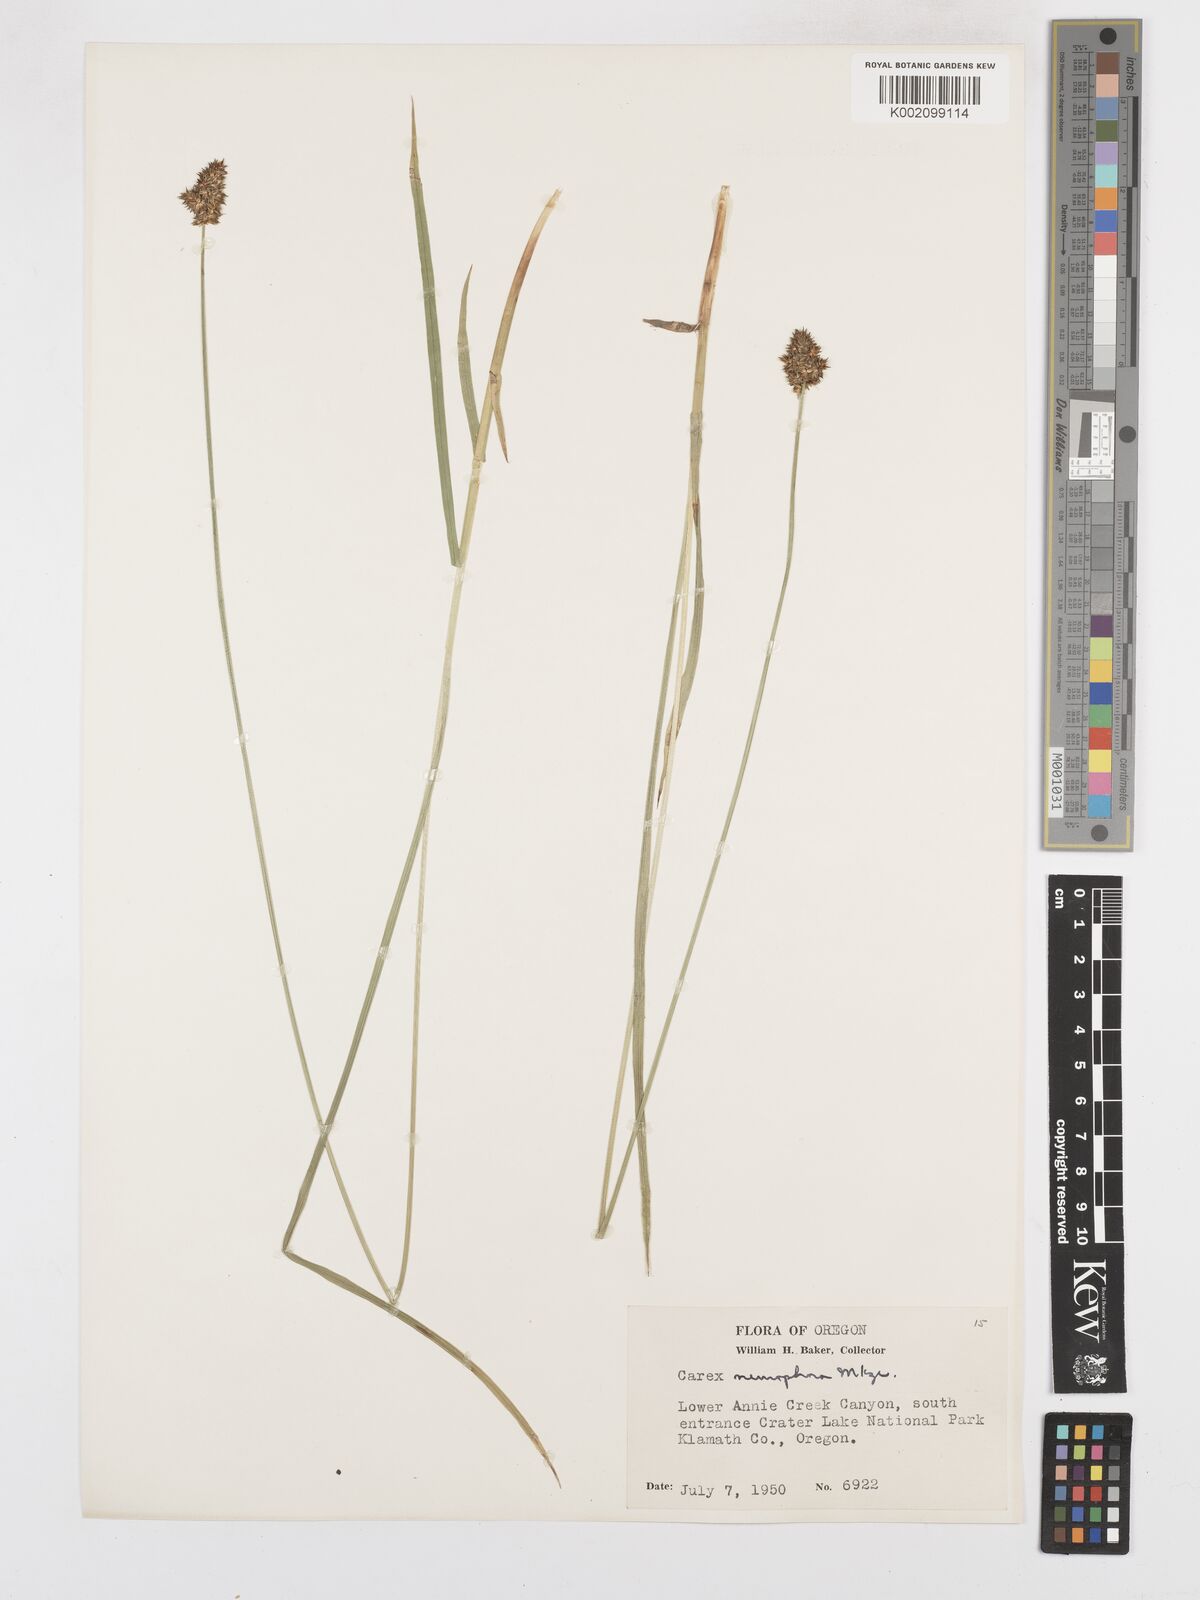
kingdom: Plantae
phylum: Tracheophyta
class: Liliopsida
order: Poales
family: Cyperaceae
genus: Carex
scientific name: Carex neurophora
